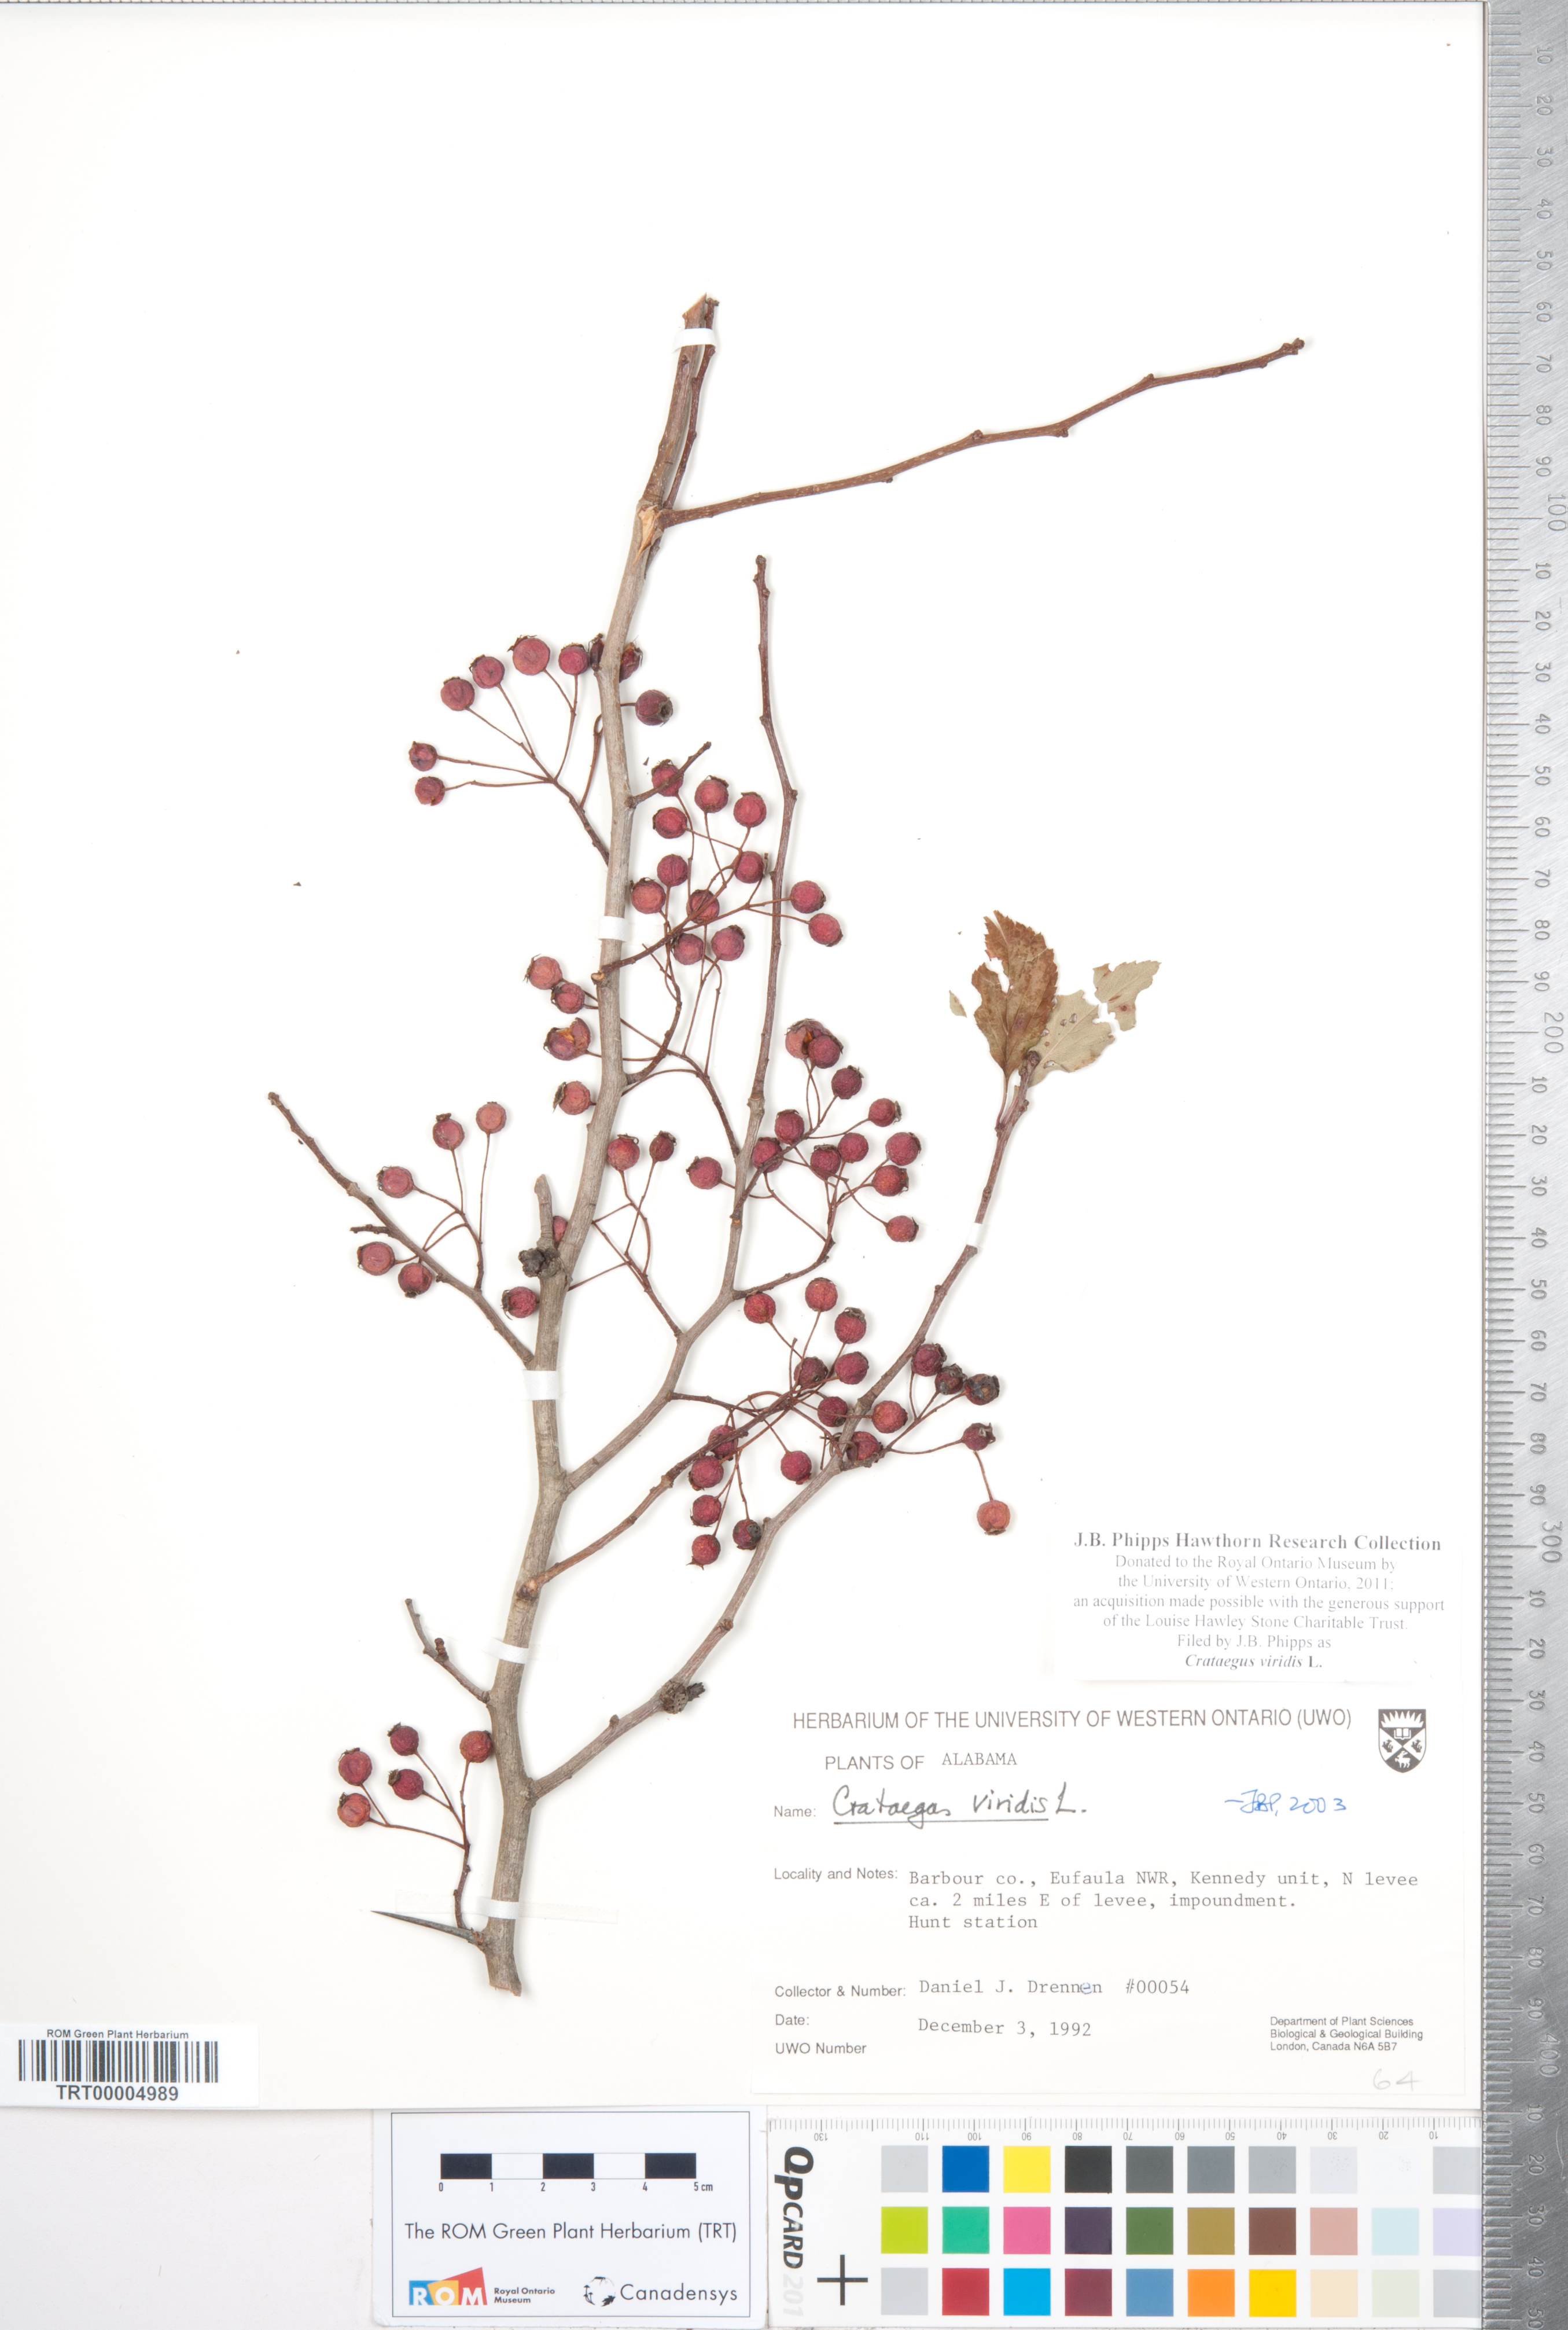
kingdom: Plantae
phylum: Tracheophyta
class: Magnoliopsida
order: Rosales
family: Rosaceae
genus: Crataegus
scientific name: Crataegus viridis
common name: Southernthorn
